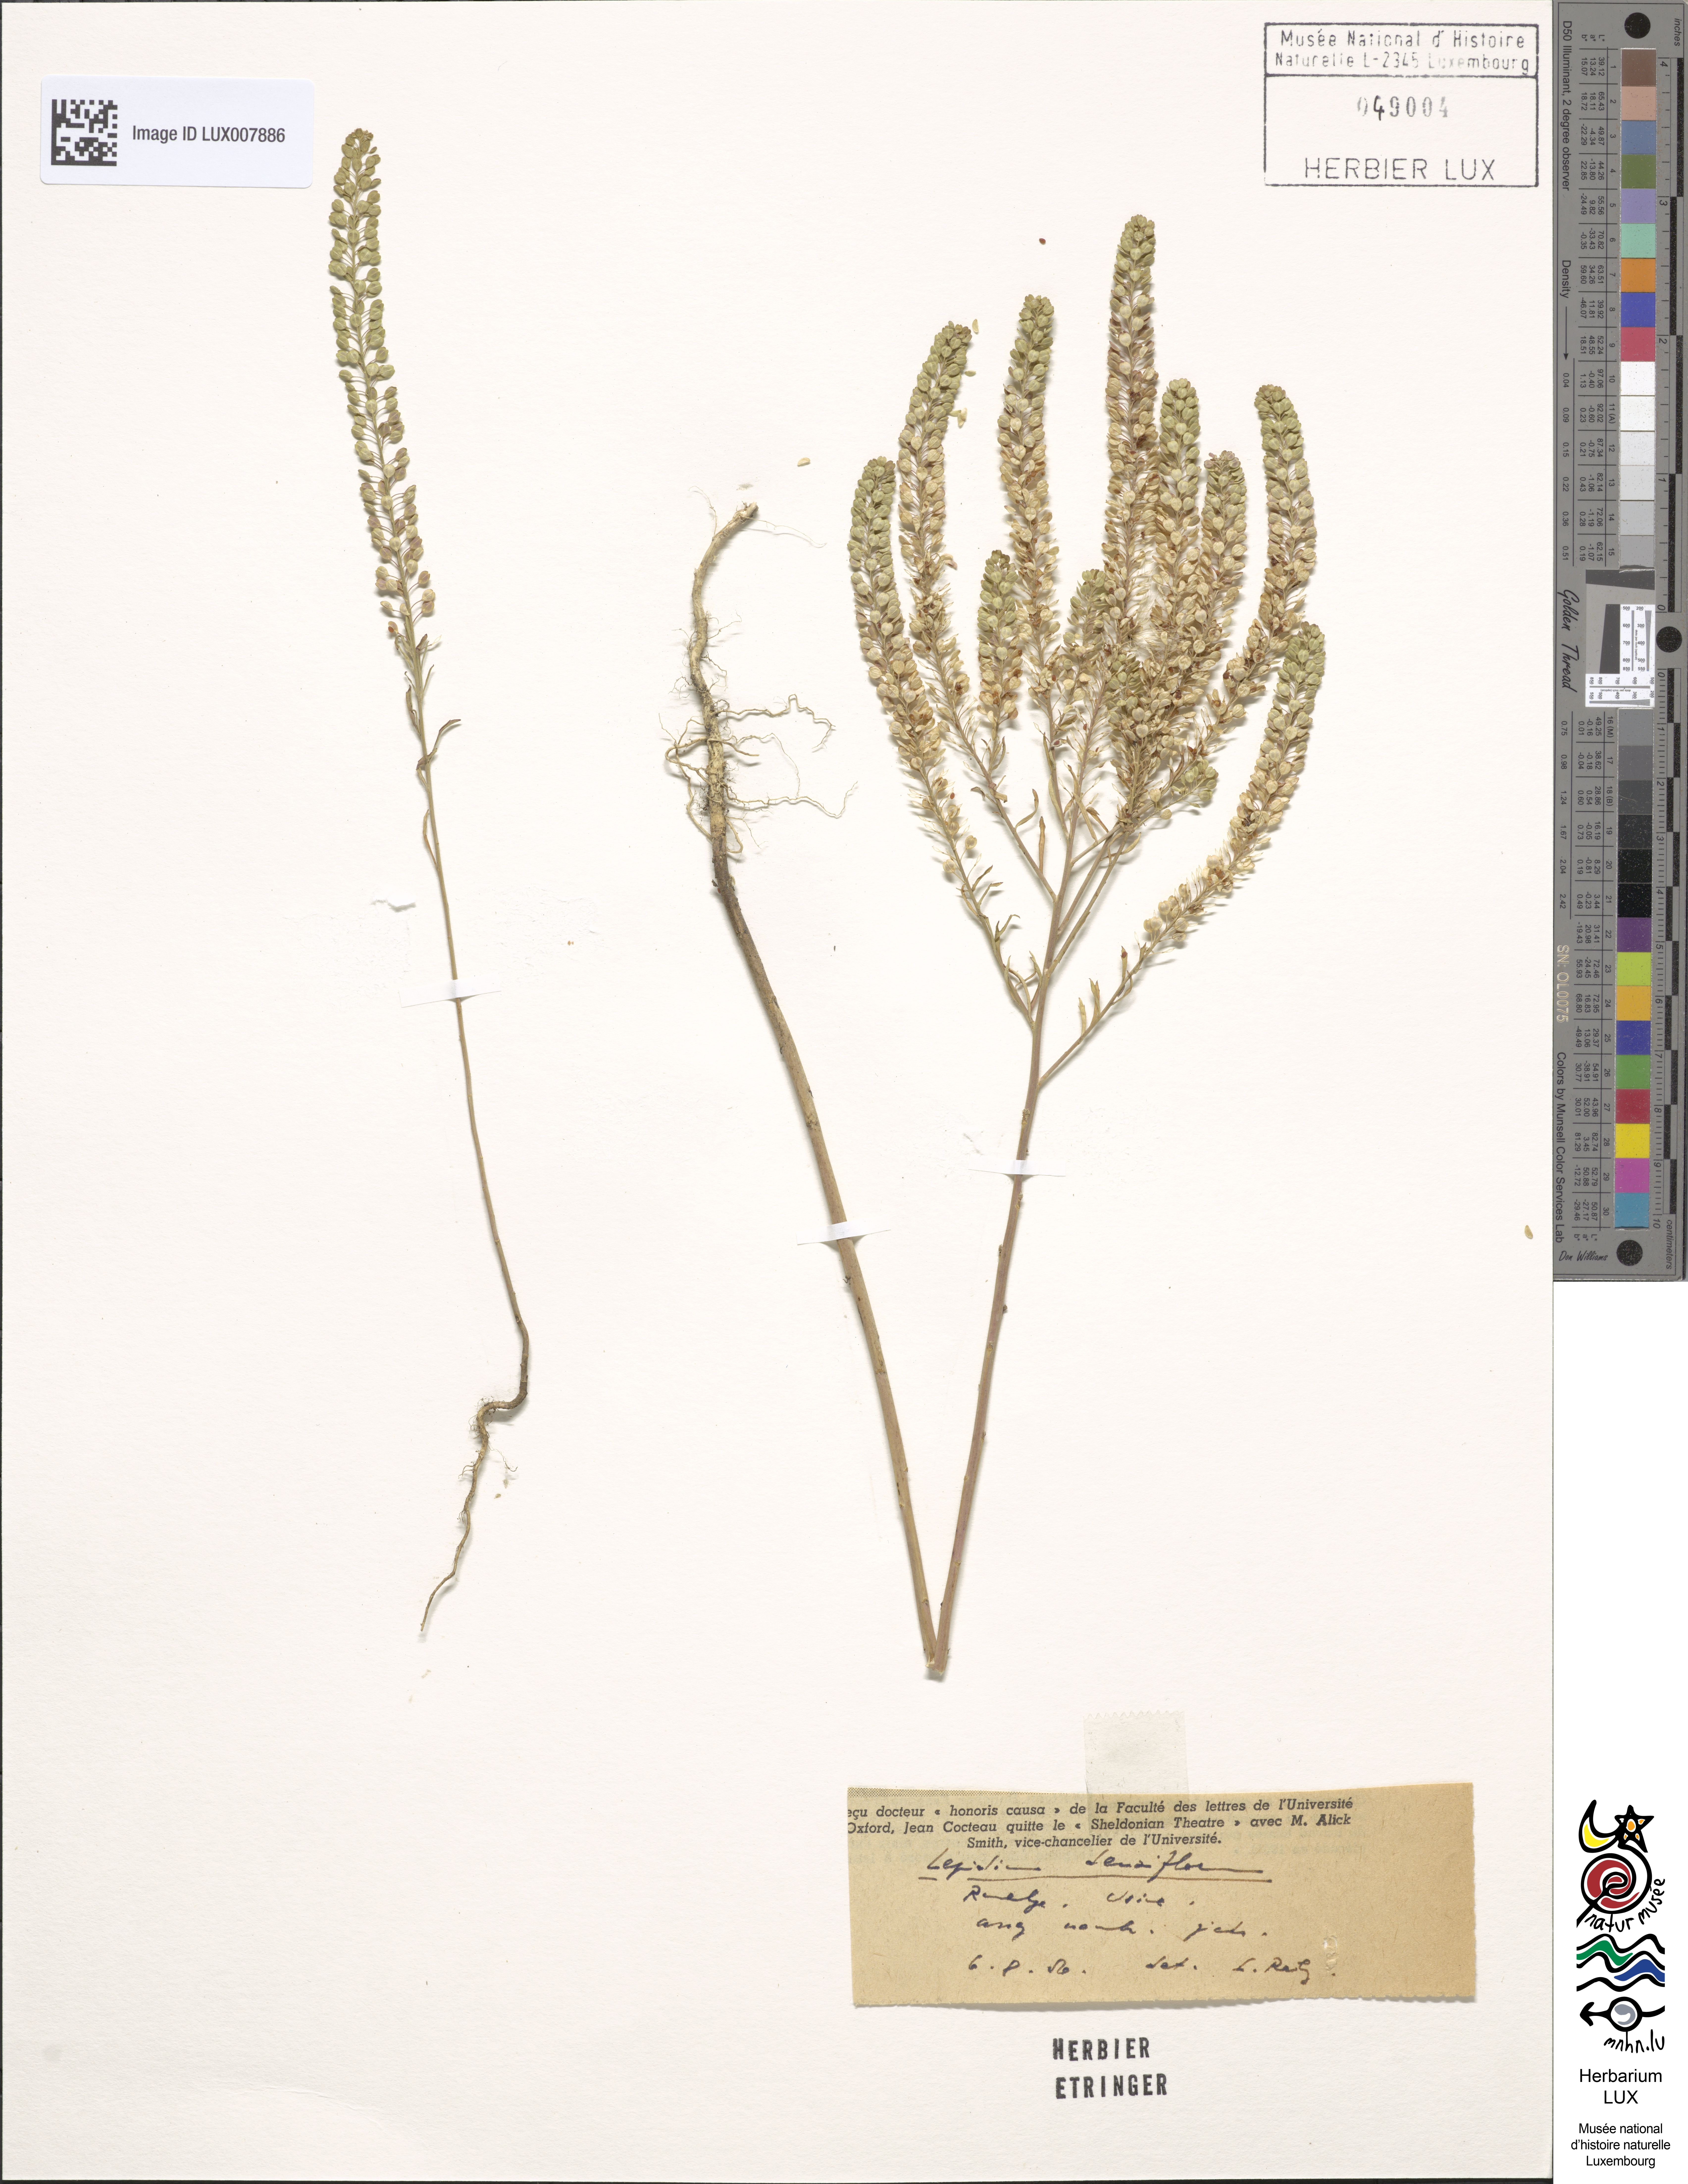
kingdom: Plantae
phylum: Tracheophyta
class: Magnoliopsida
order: Brassicales
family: Brassicaceae
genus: Lepidium
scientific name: Lepidium densiflorum
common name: Miner's pepperwort
